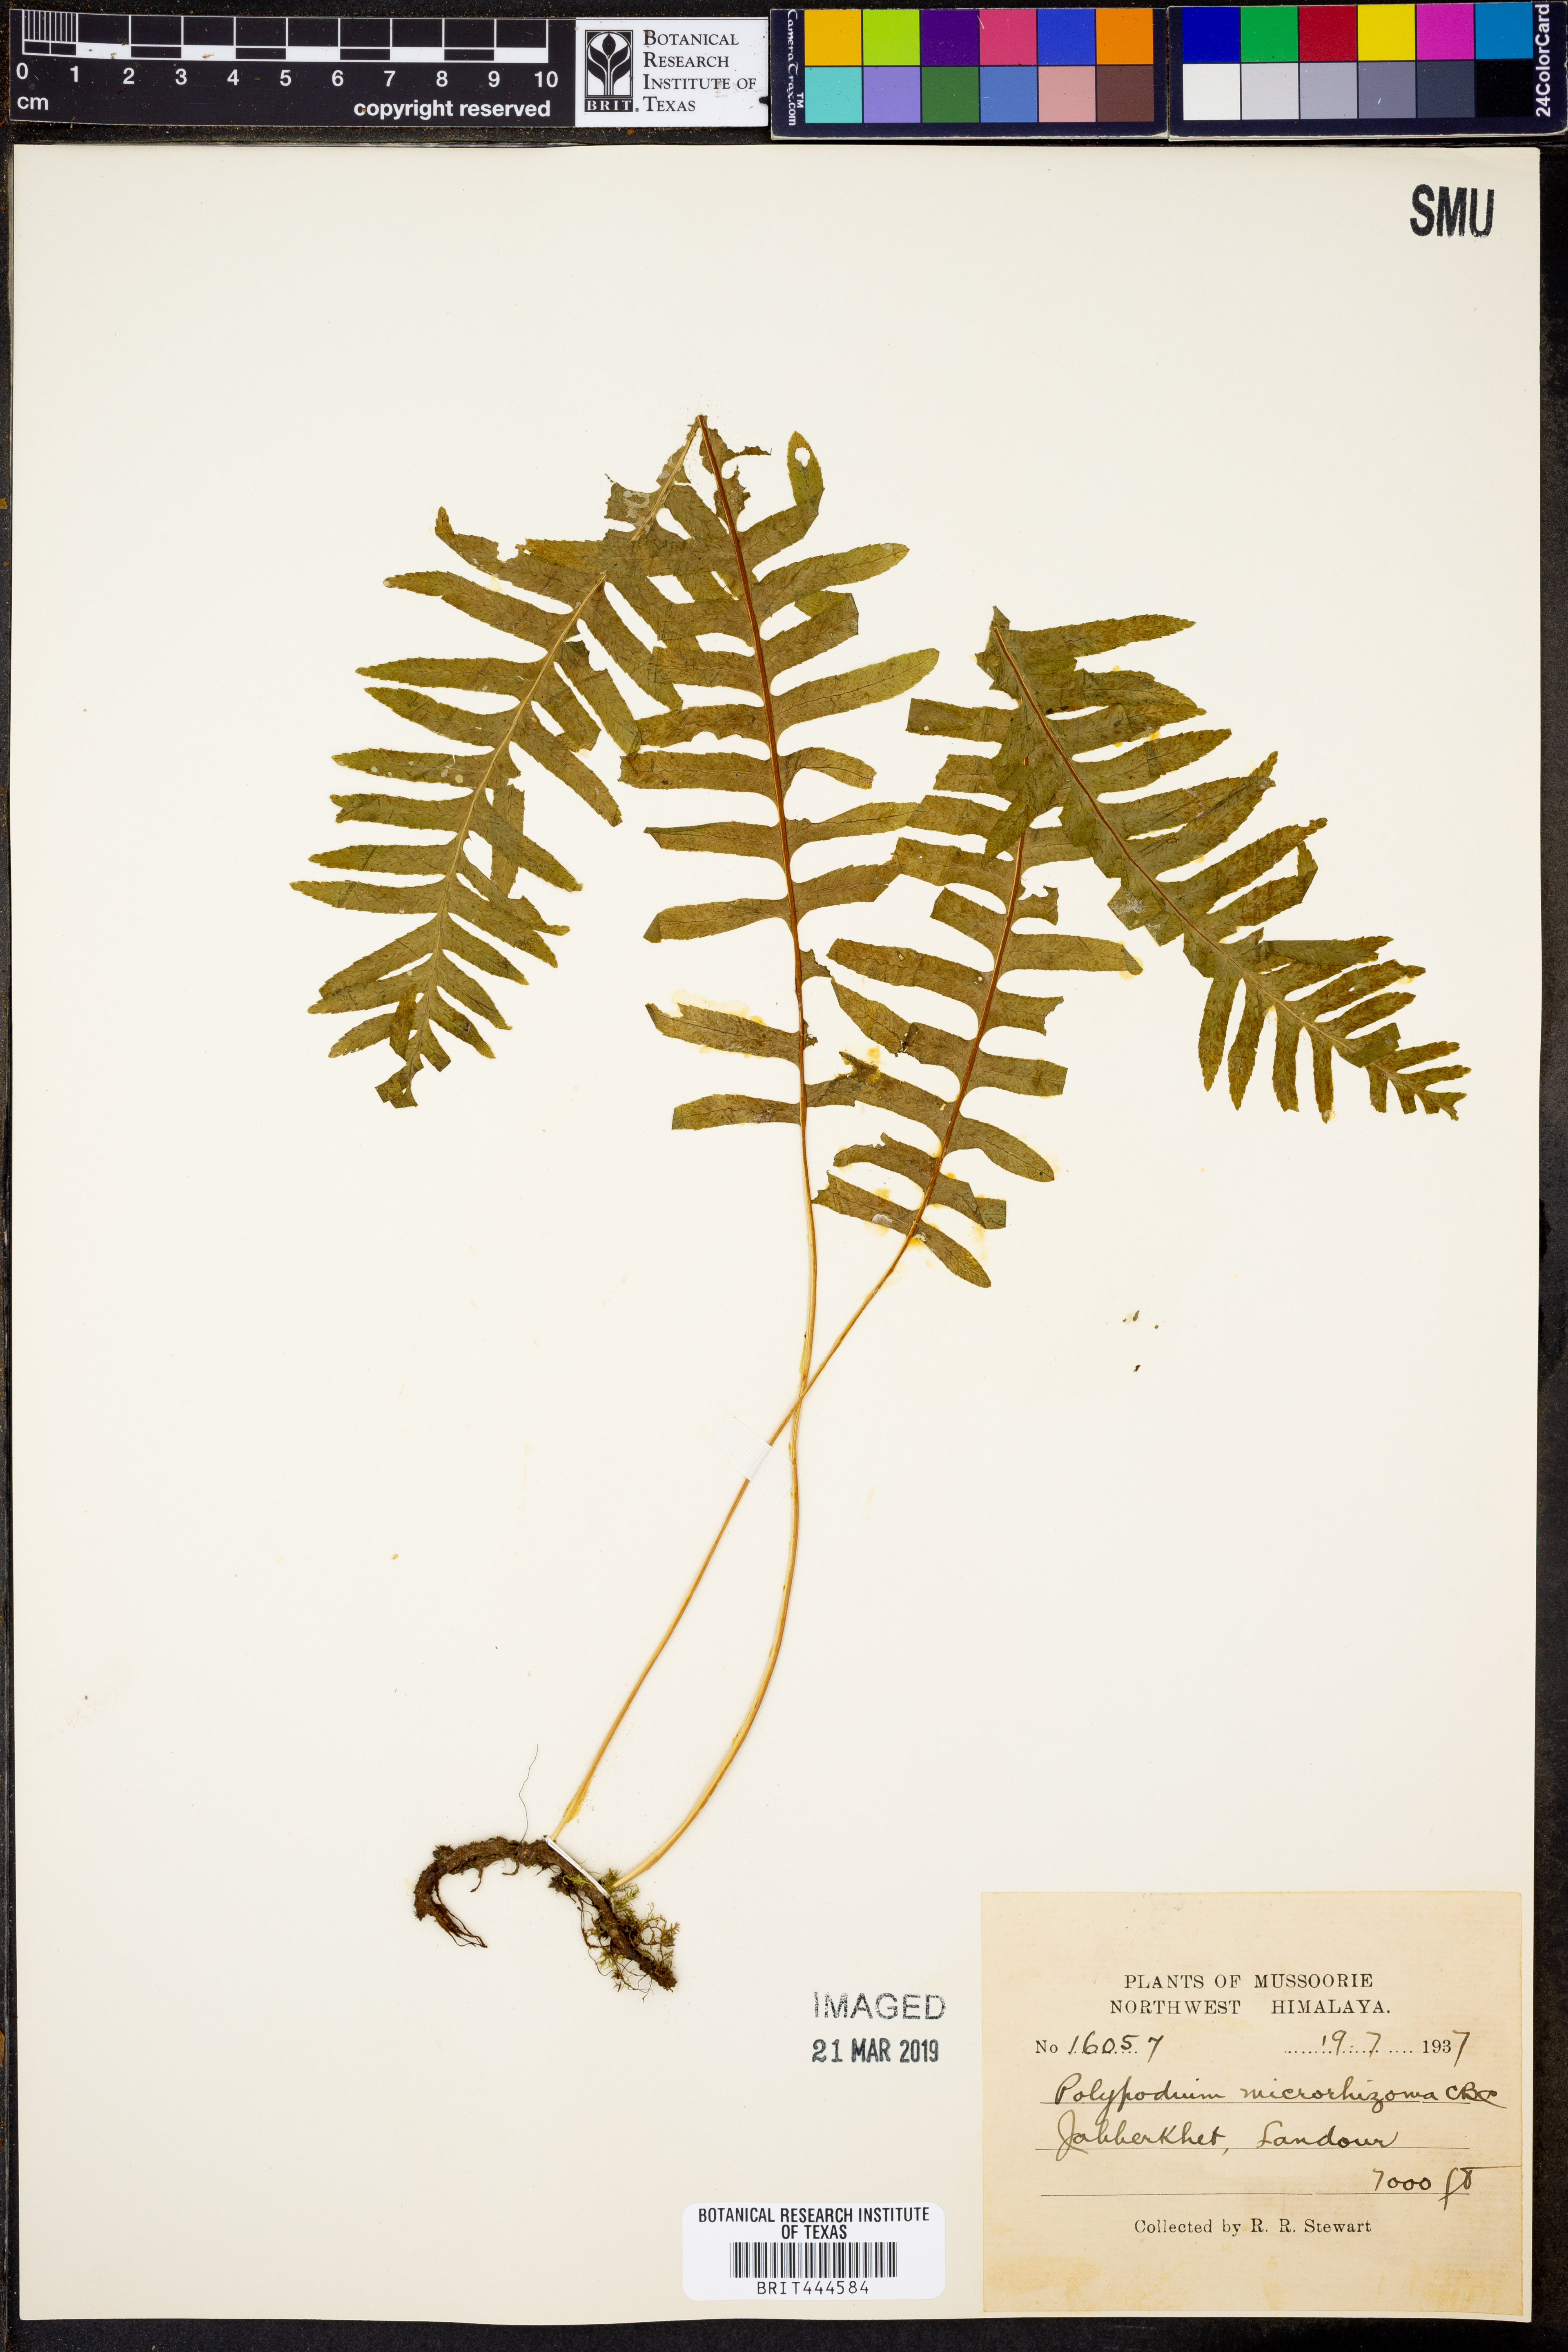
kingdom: Plantae
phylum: Tracheophyta
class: Polypodiopsida
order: Polypodiales
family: Polypodiaceae
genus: Goniophlebium
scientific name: Goniophlebium fieldingianum
